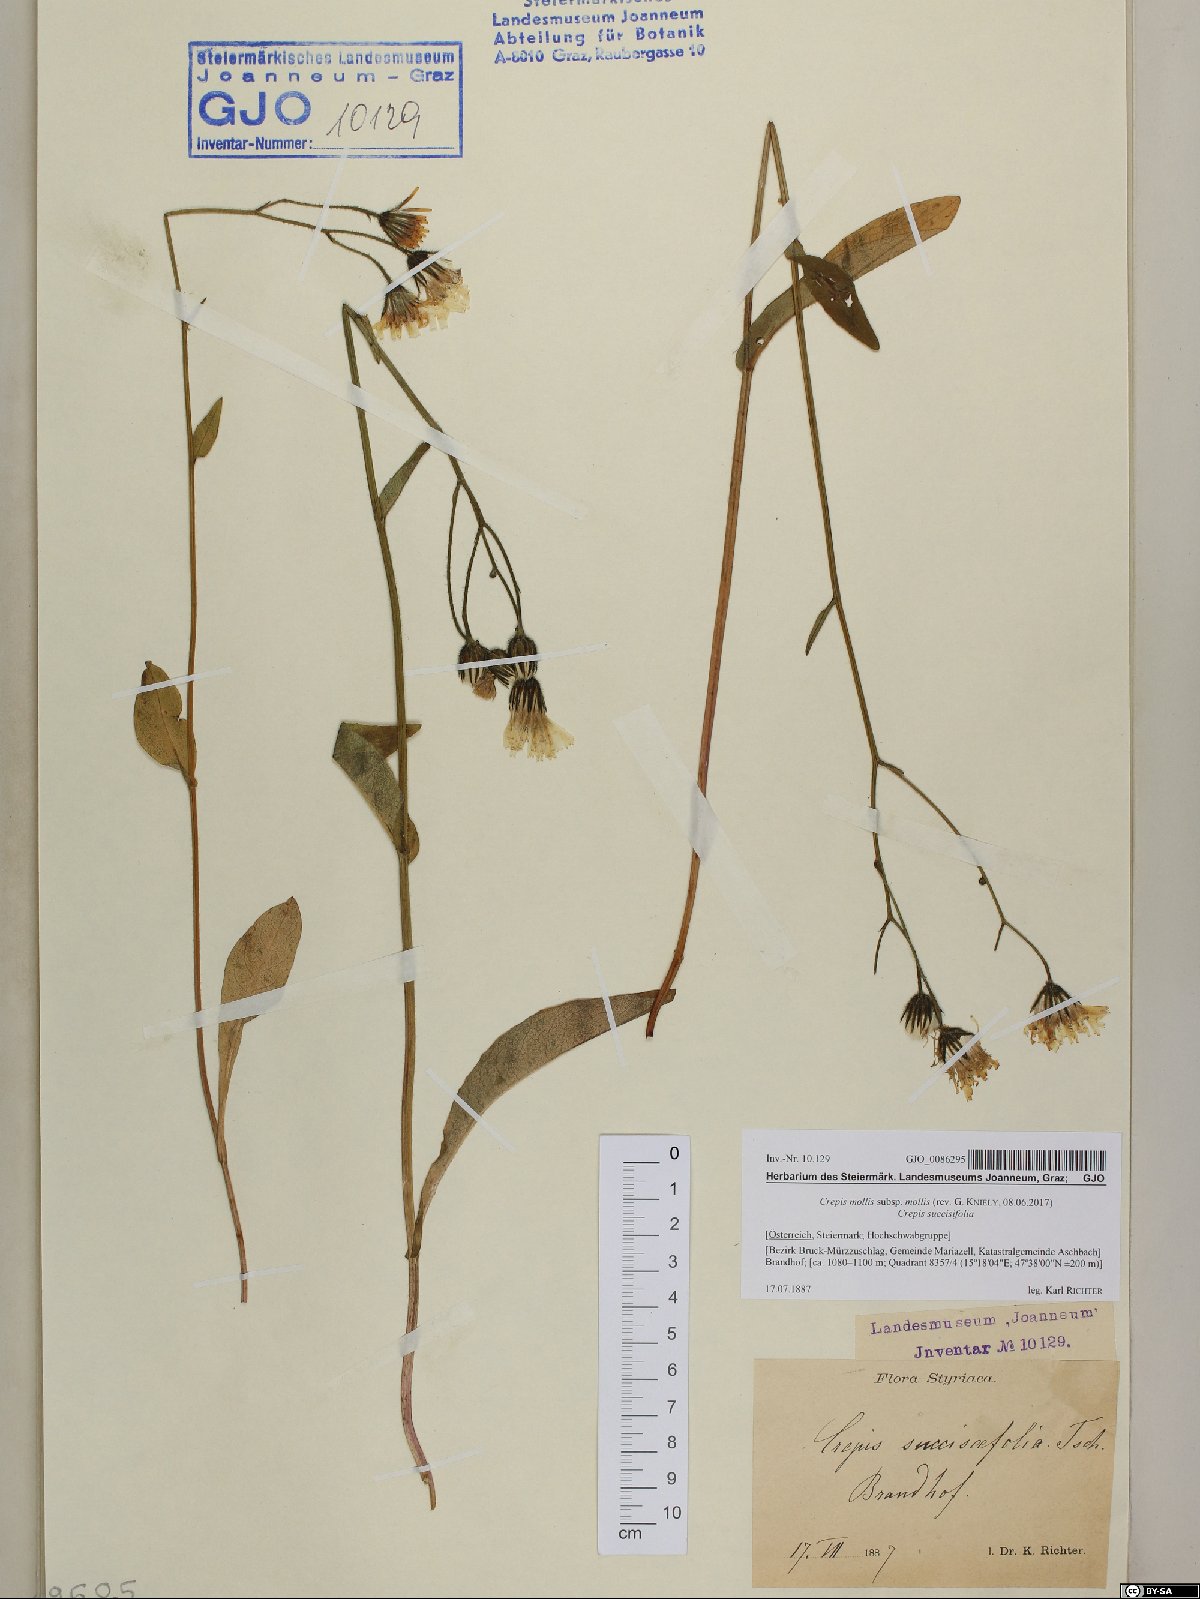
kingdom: Plantae
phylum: Tracheophyta
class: Magnoliopsida
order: Asterales
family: Asteraceae
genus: Crepis
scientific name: Crepis mollis
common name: Northern hawk's-beard
